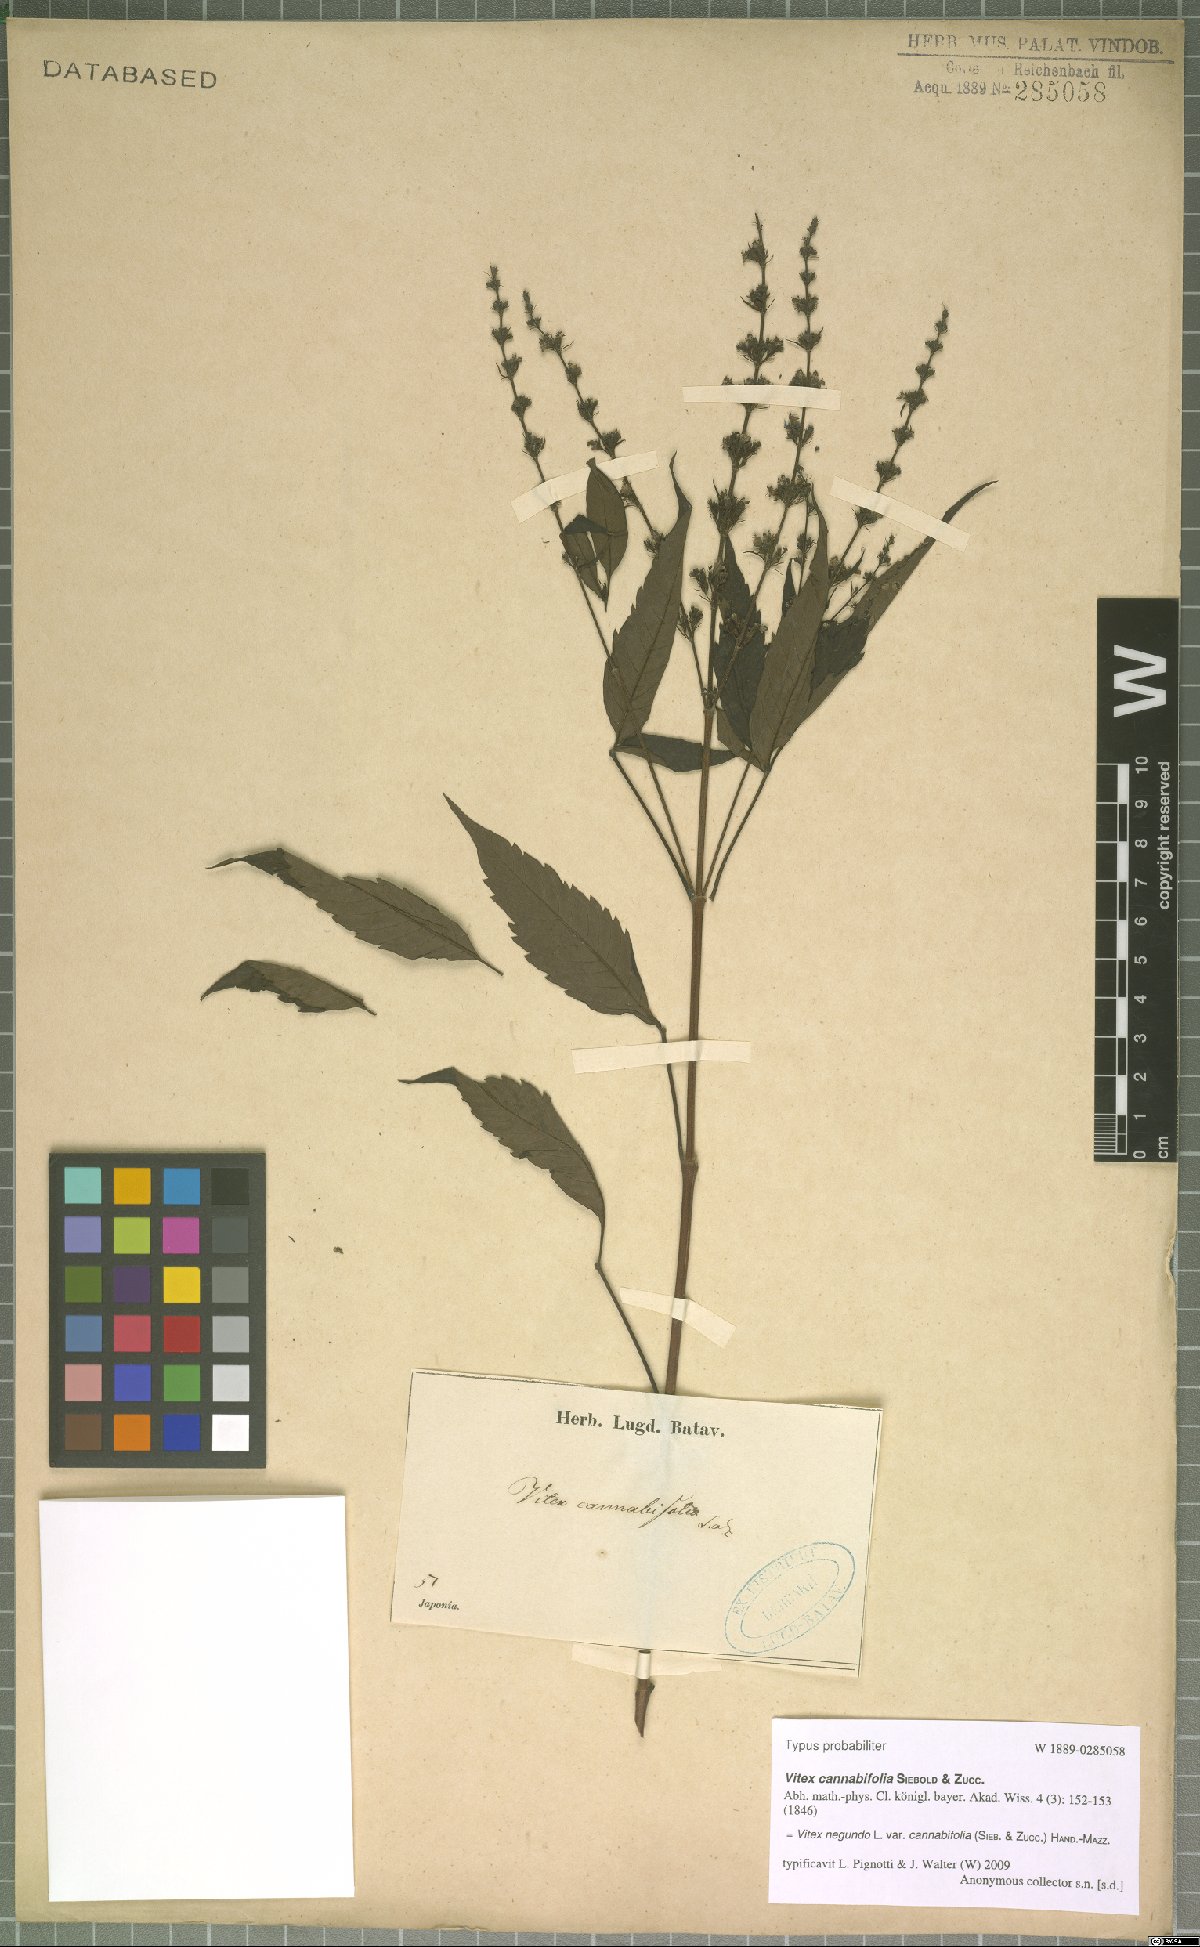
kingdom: Plantae
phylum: Tracheophyta
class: Magnoliopsida
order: Lamiales
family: Lamiaceae
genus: Vitex
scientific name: Vitex negundo
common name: Chinese chastetree
